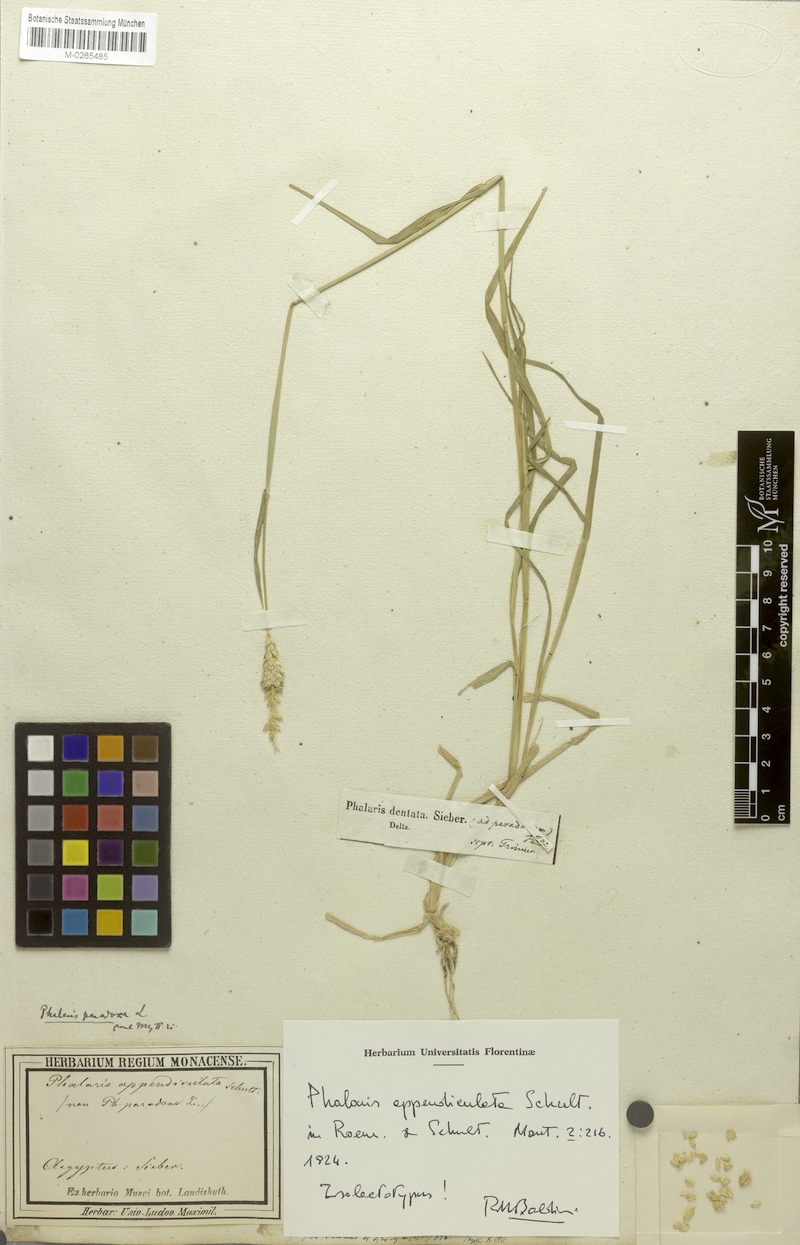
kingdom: Plantae
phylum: Tracheophyta
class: Liliopsida
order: Poales
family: Poaceae
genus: Phalaris
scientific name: Phalaris paradoxa
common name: Awned canary-grass
